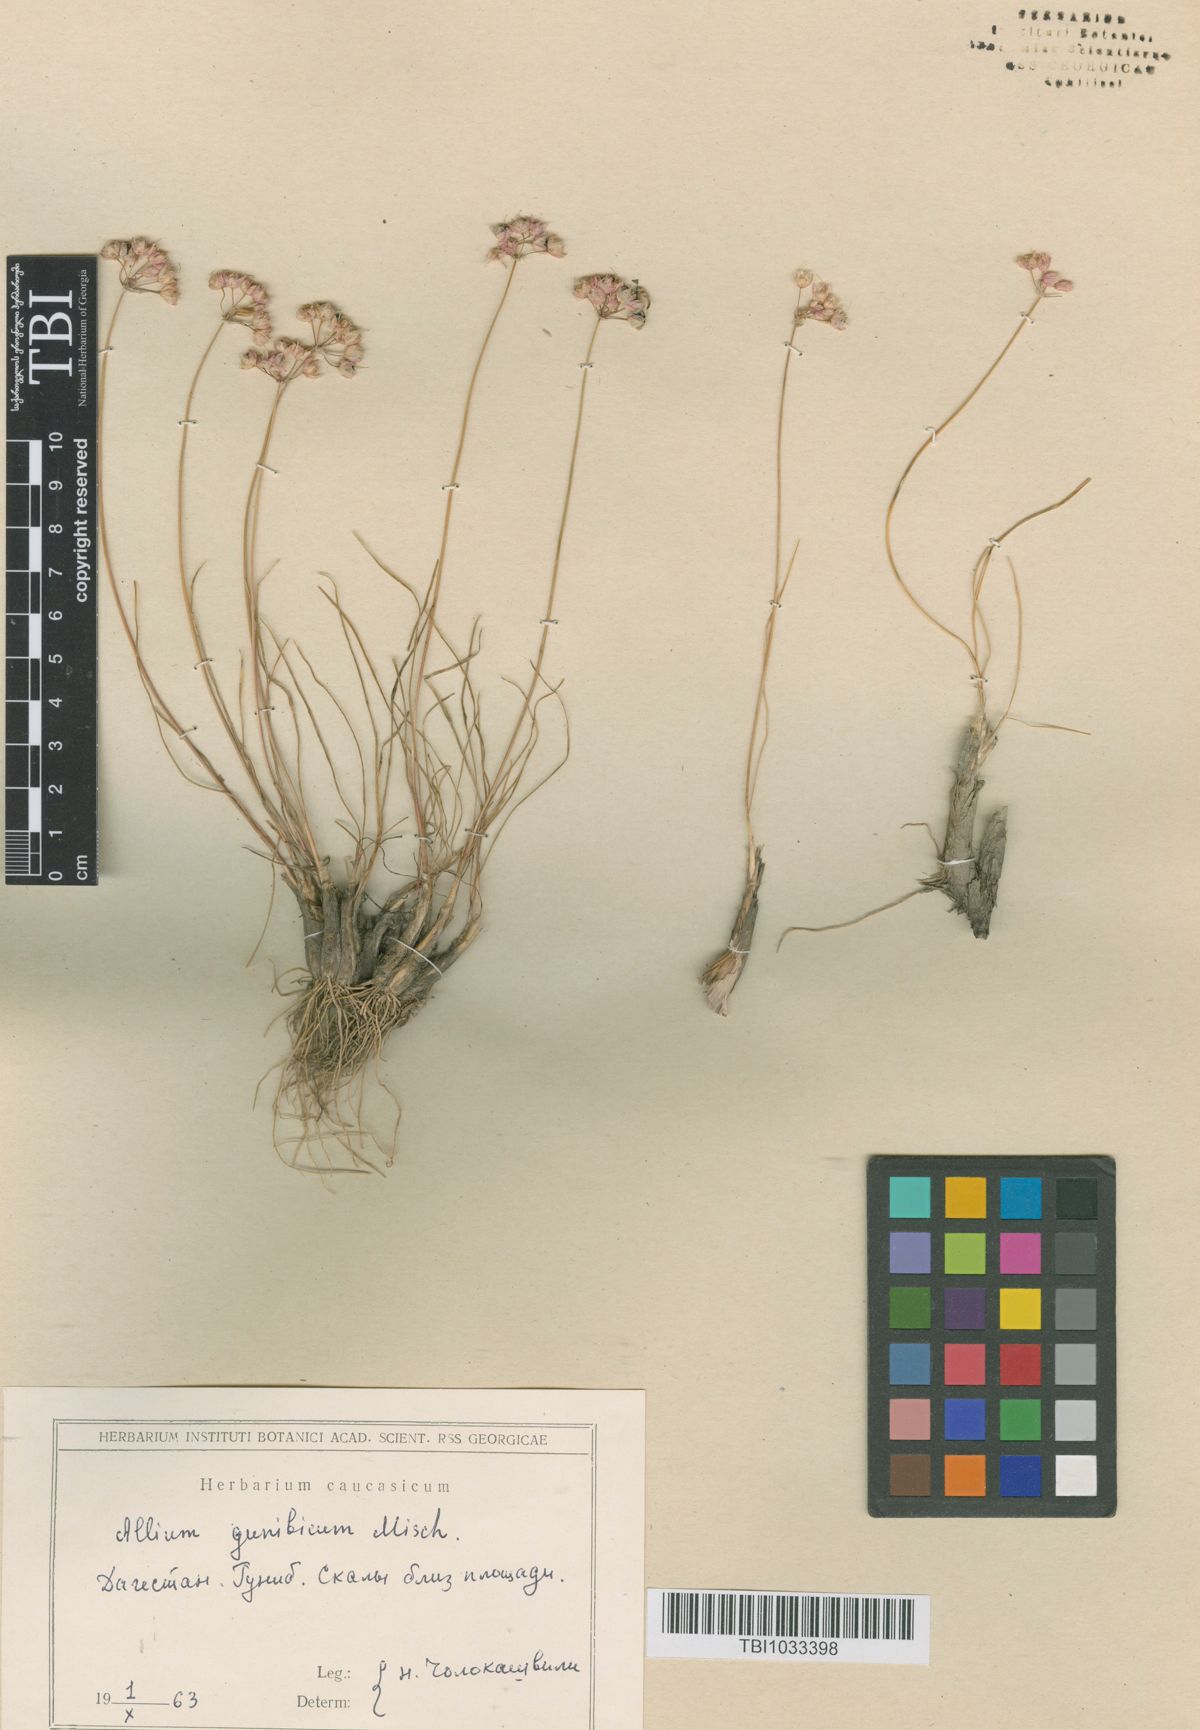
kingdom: Plantae
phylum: Tracheophyta
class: Liliopsida
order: Asparagales
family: Amaryllidaceae
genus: Allium
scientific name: Allium gunibicum
